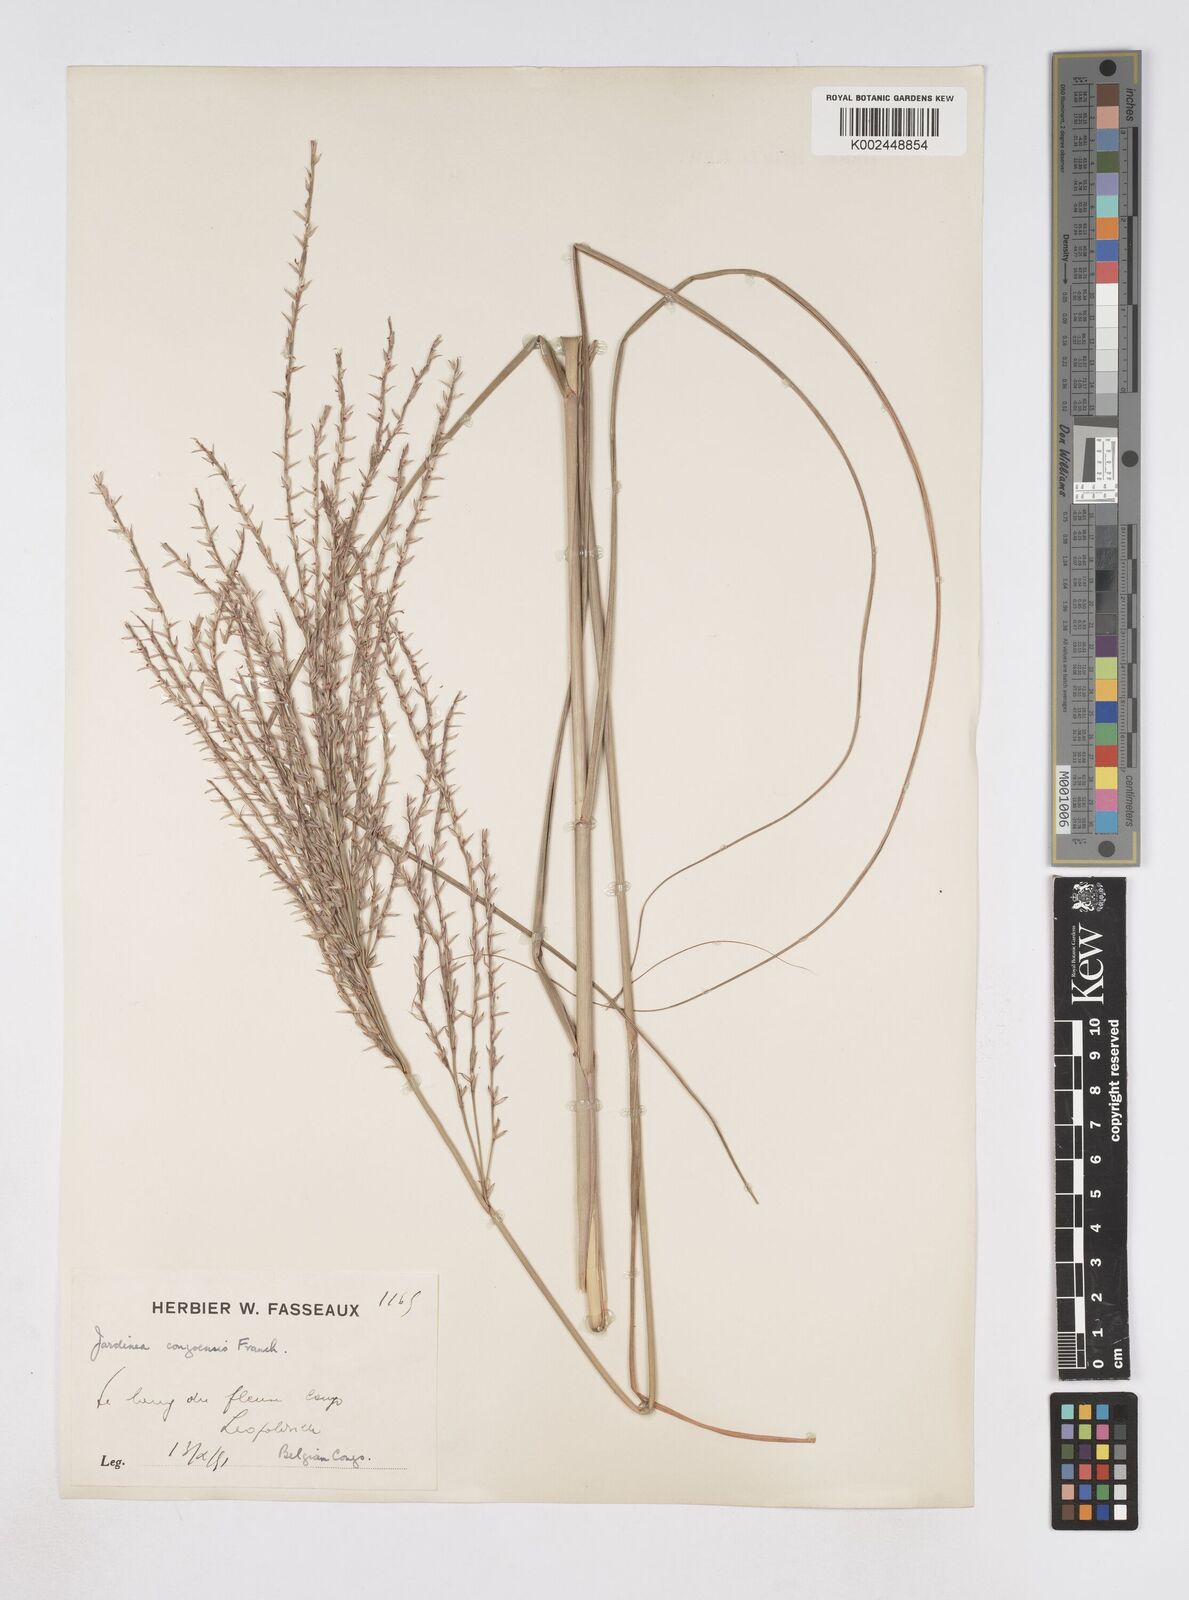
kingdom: Plantae
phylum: Tracheophyta
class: Liliopsida
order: Poales
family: Poaceae
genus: Phacelurus
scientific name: Phacelurus gabonensis
